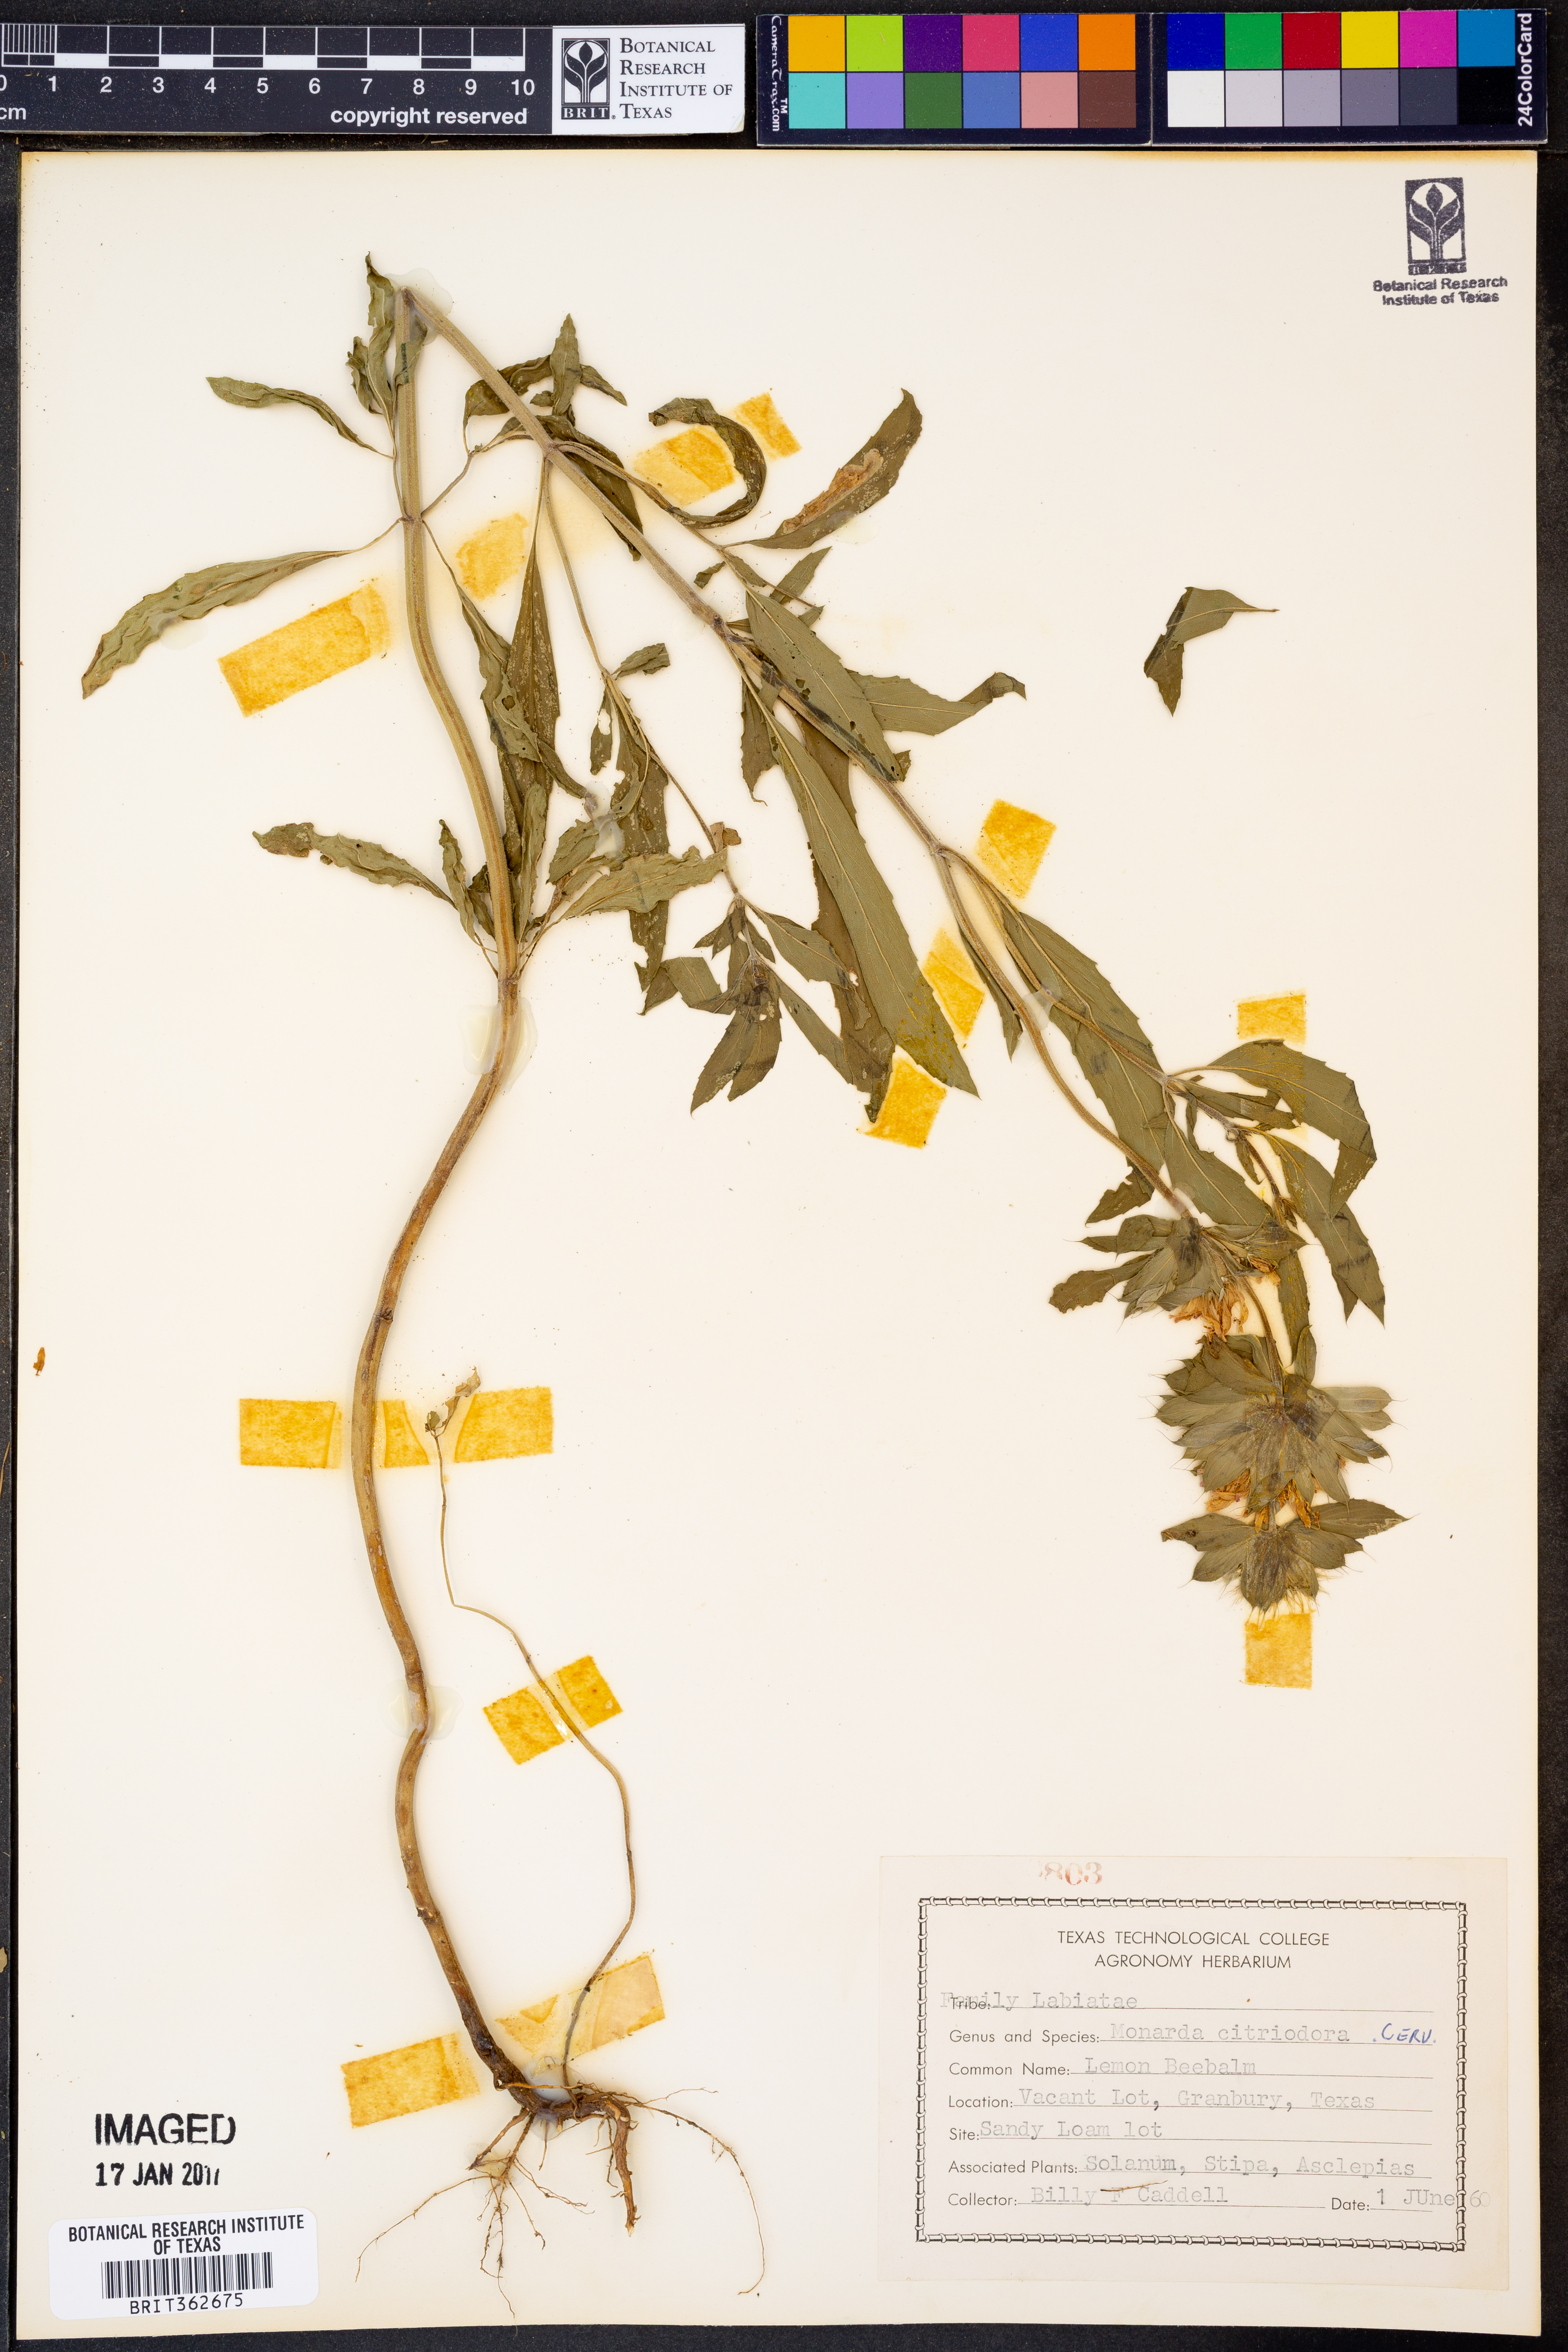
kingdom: Plantae
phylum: Tracheophyta
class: Magnoliopsida
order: Lamiales
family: Lamiaceae
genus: Monarda
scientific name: Monarda citriodora
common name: Lemon beebalm
